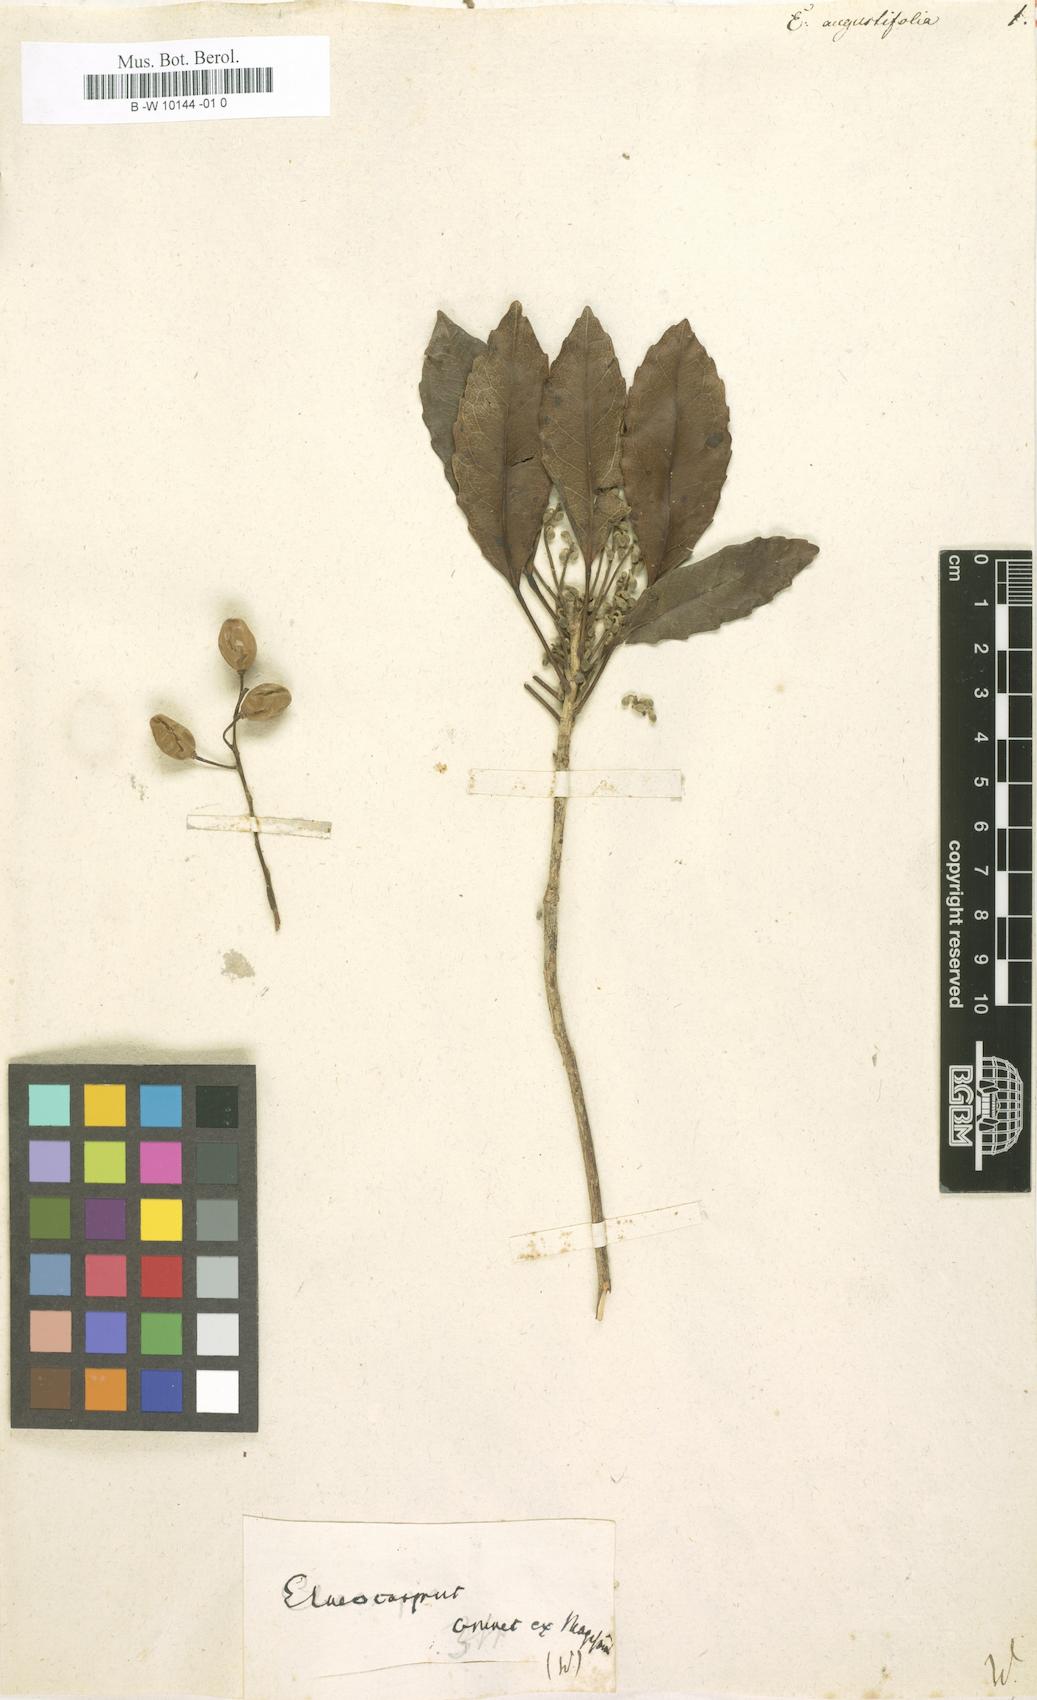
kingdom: Plantae
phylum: Tracheophyta
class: Magnoliopsida
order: Oxalidales
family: Elaeocarpaceae
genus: Elaeocarpus
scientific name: Elaeocarpus angustifolius
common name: Blue marble tree
